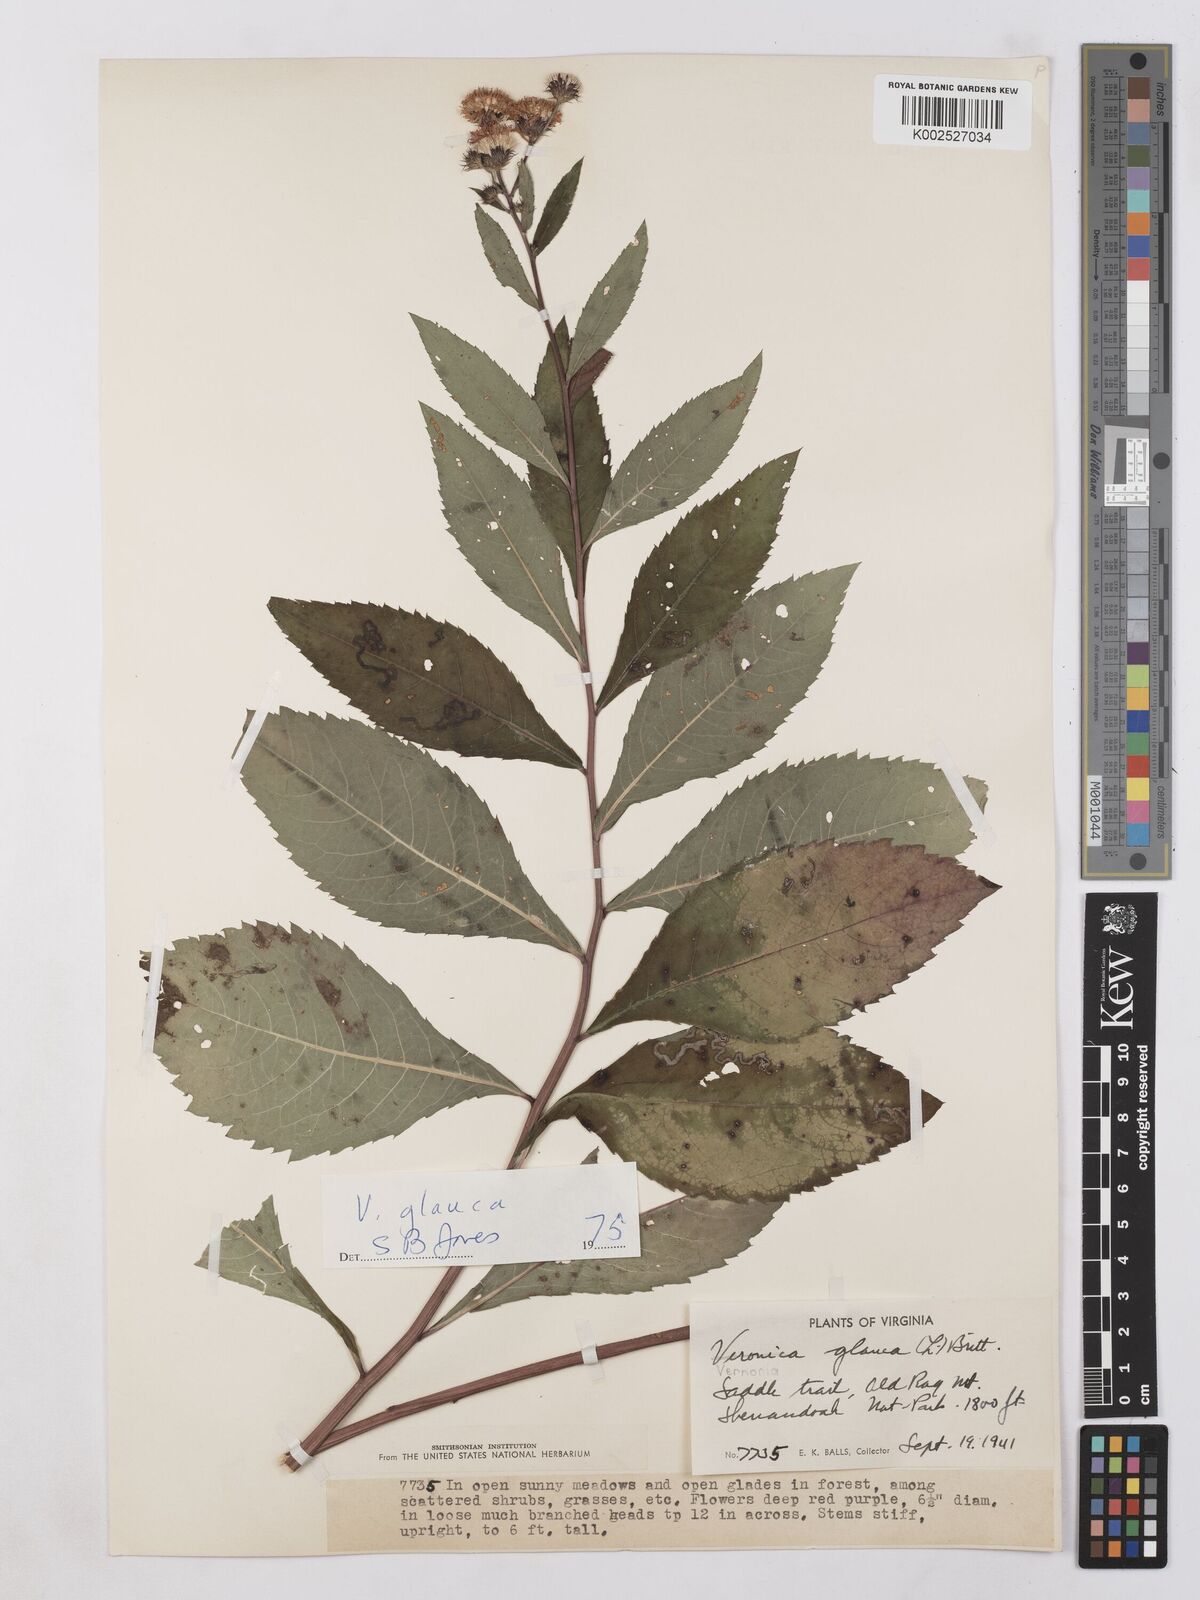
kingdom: Plantae
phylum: Tracheophyta
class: Magnoliopsida
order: Asterales
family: Asteraceae
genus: Vernonia
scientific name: Vernonia glauca
